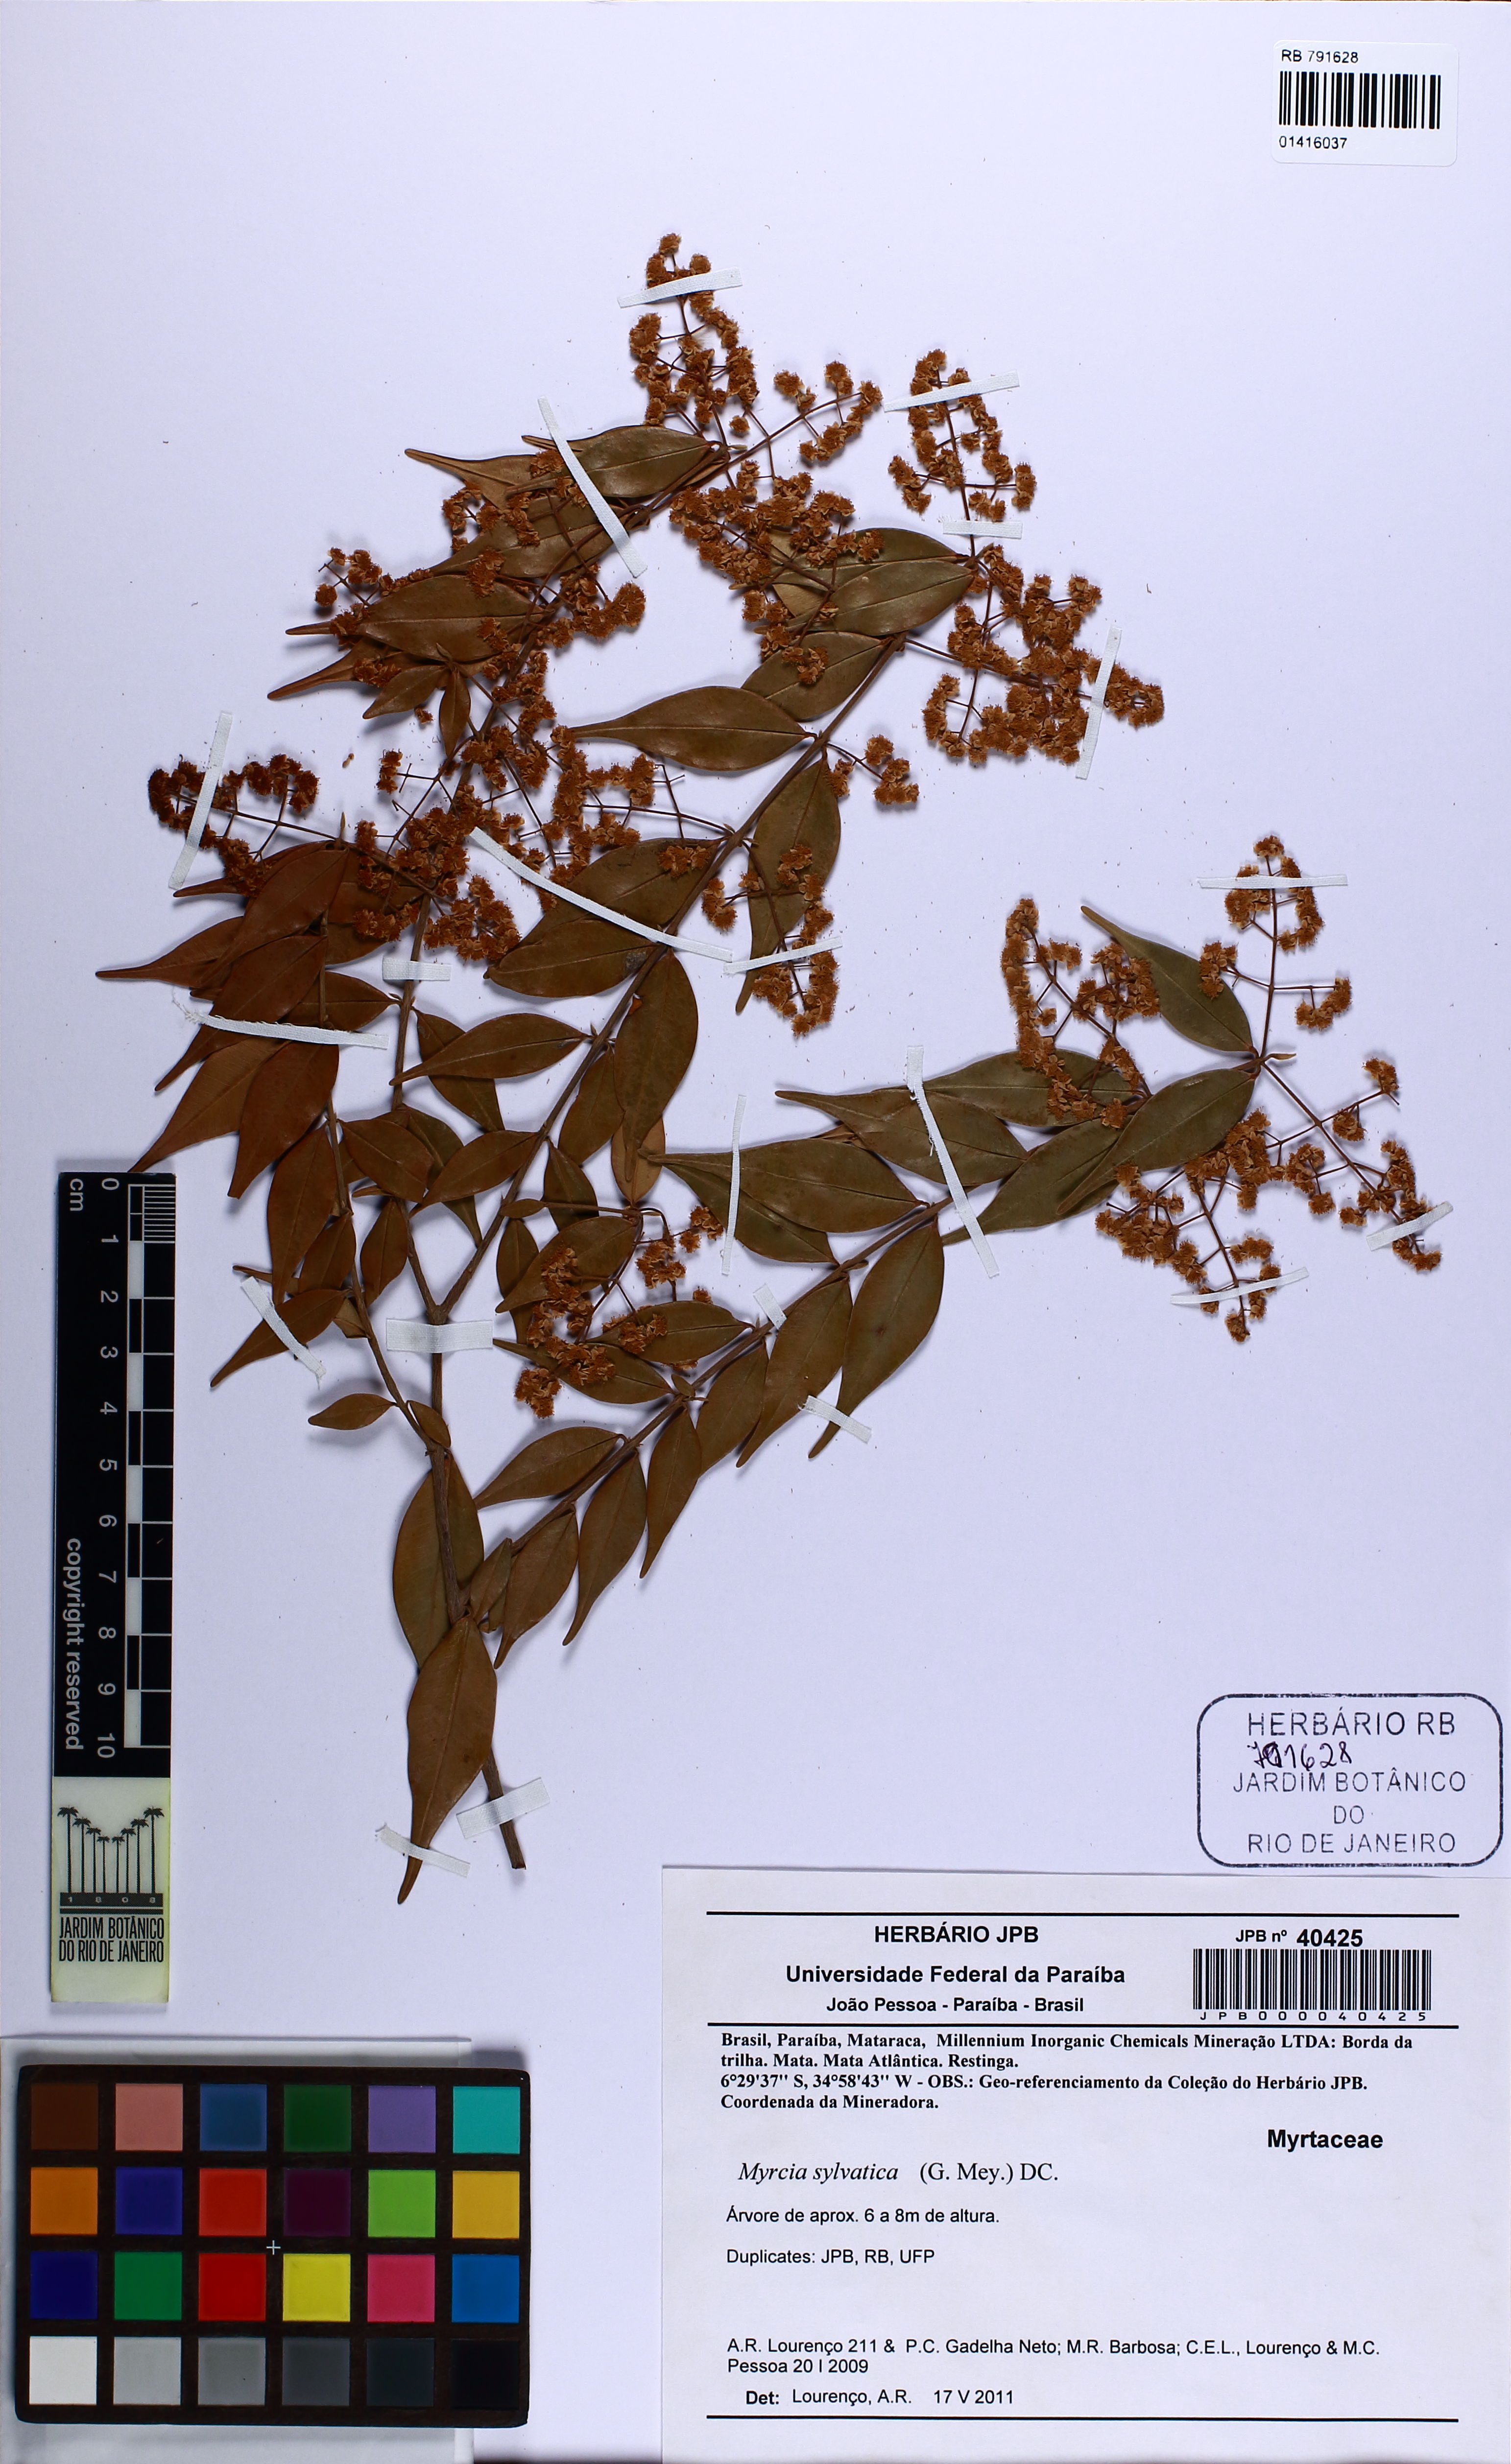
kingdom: Plantae
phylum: Tracheophyta
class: Magnoliopsida
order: Myrtales
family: Myrtaceae
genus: Myrcia
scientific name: Myrcia sylvatica
